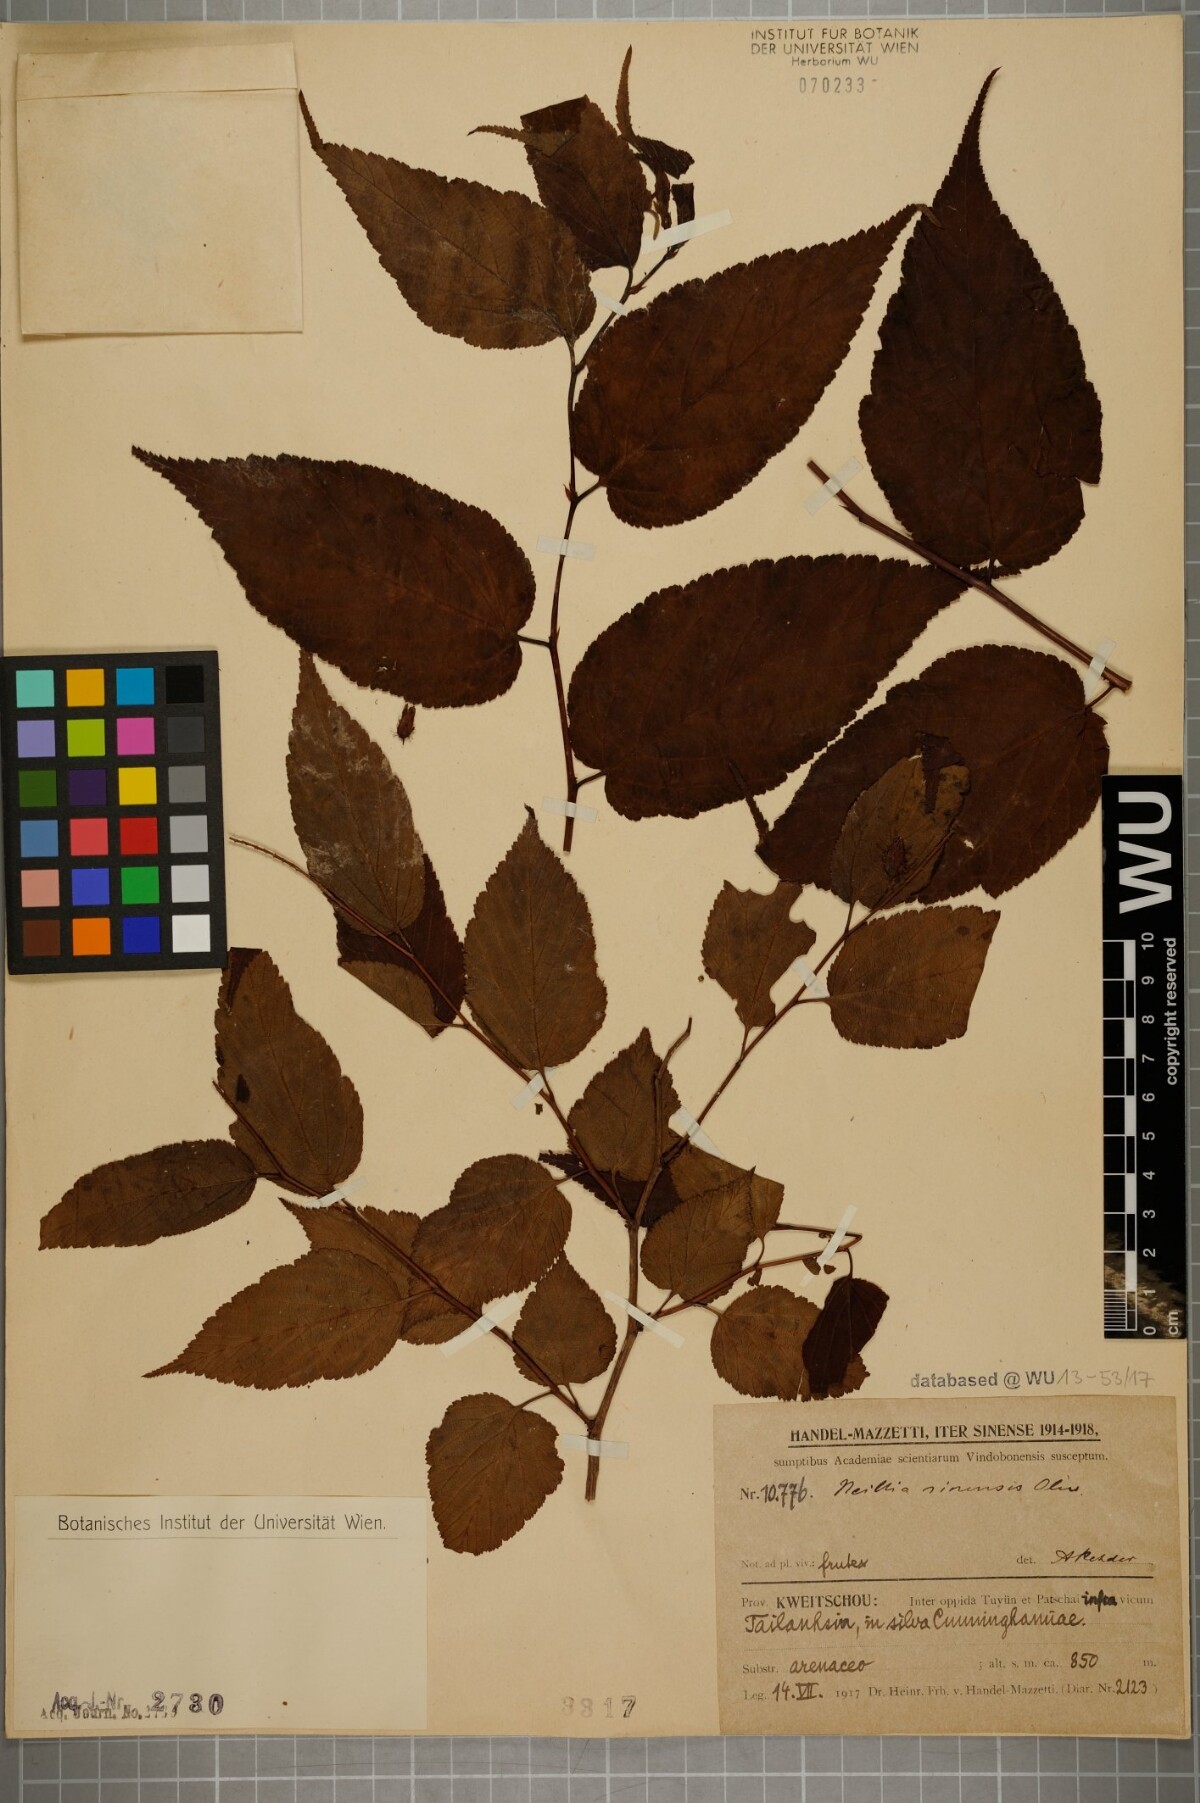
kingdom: Plantae
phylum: Tracheophyta
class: Magnoliopsida
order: Rosales
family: Rosaceae
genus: Neillia
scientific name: Neillia sinensis
